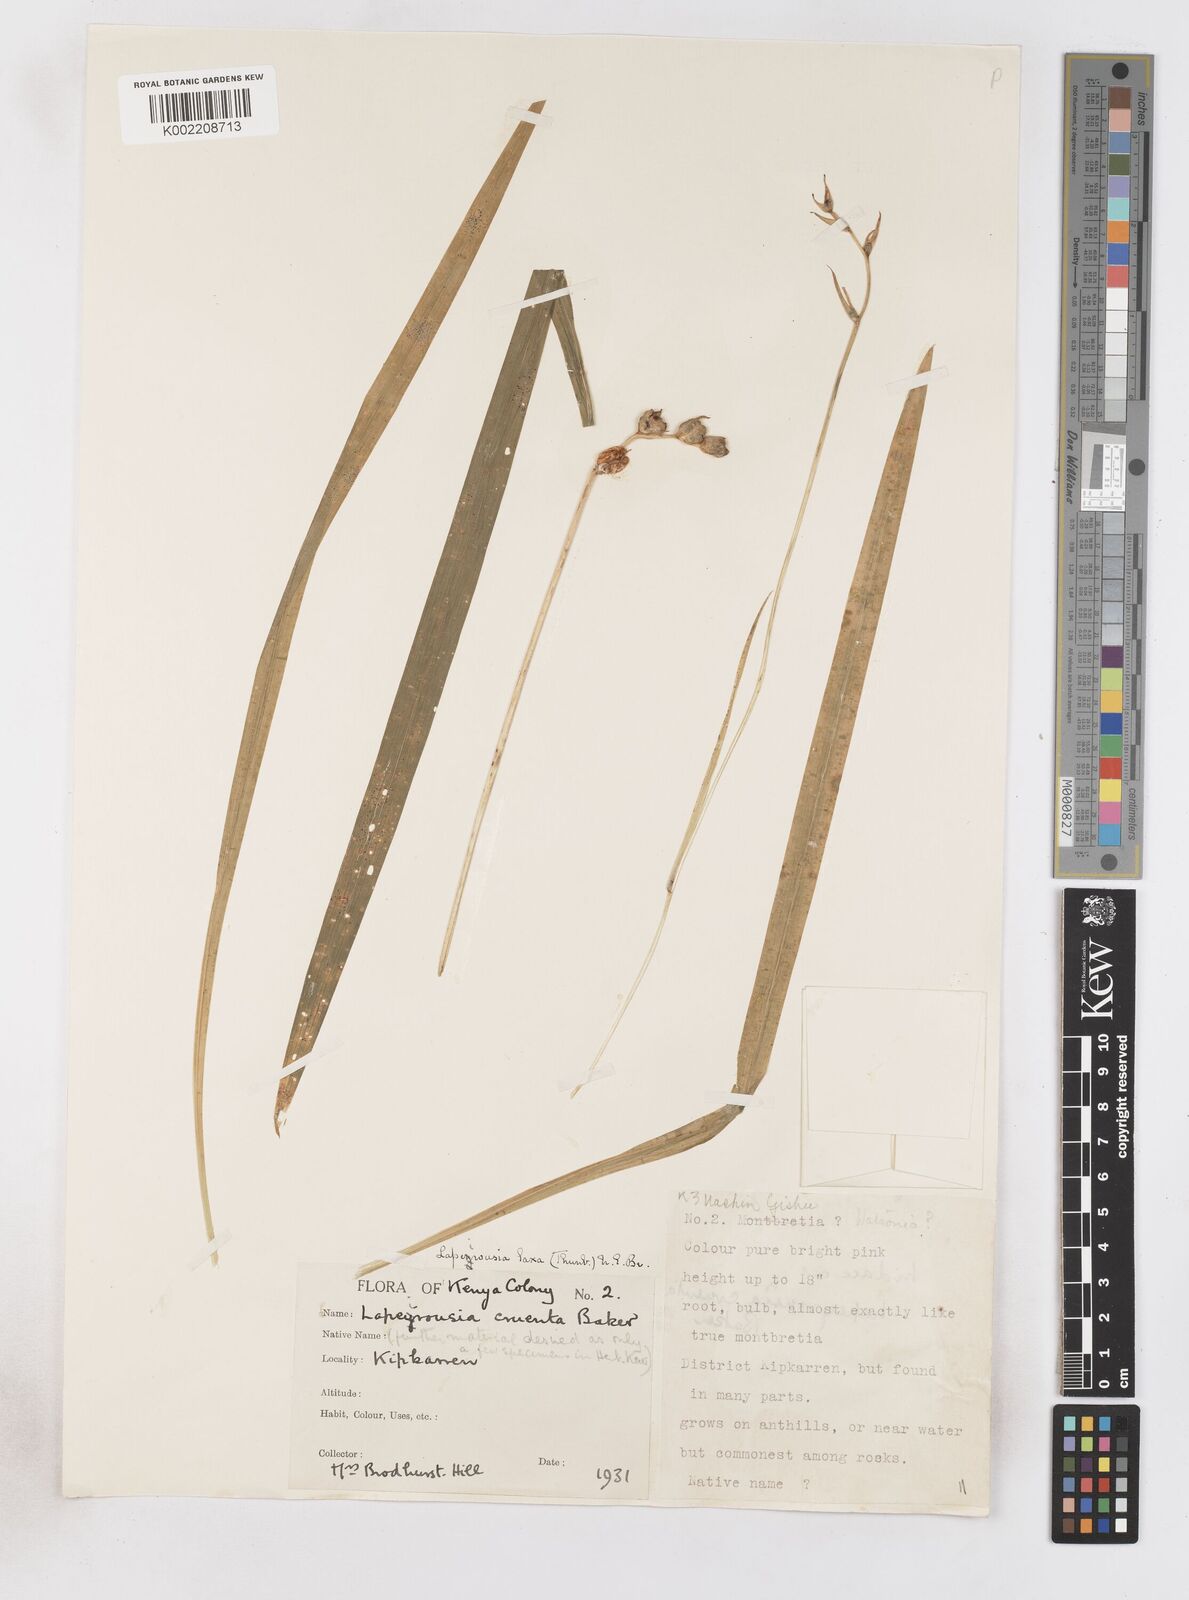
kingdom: Plantae
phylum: Tracheophyta
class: Liliopsida
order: Asparagales
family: Iridaceae
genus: Freesia
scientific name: Freesia laxa
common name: False freesia
